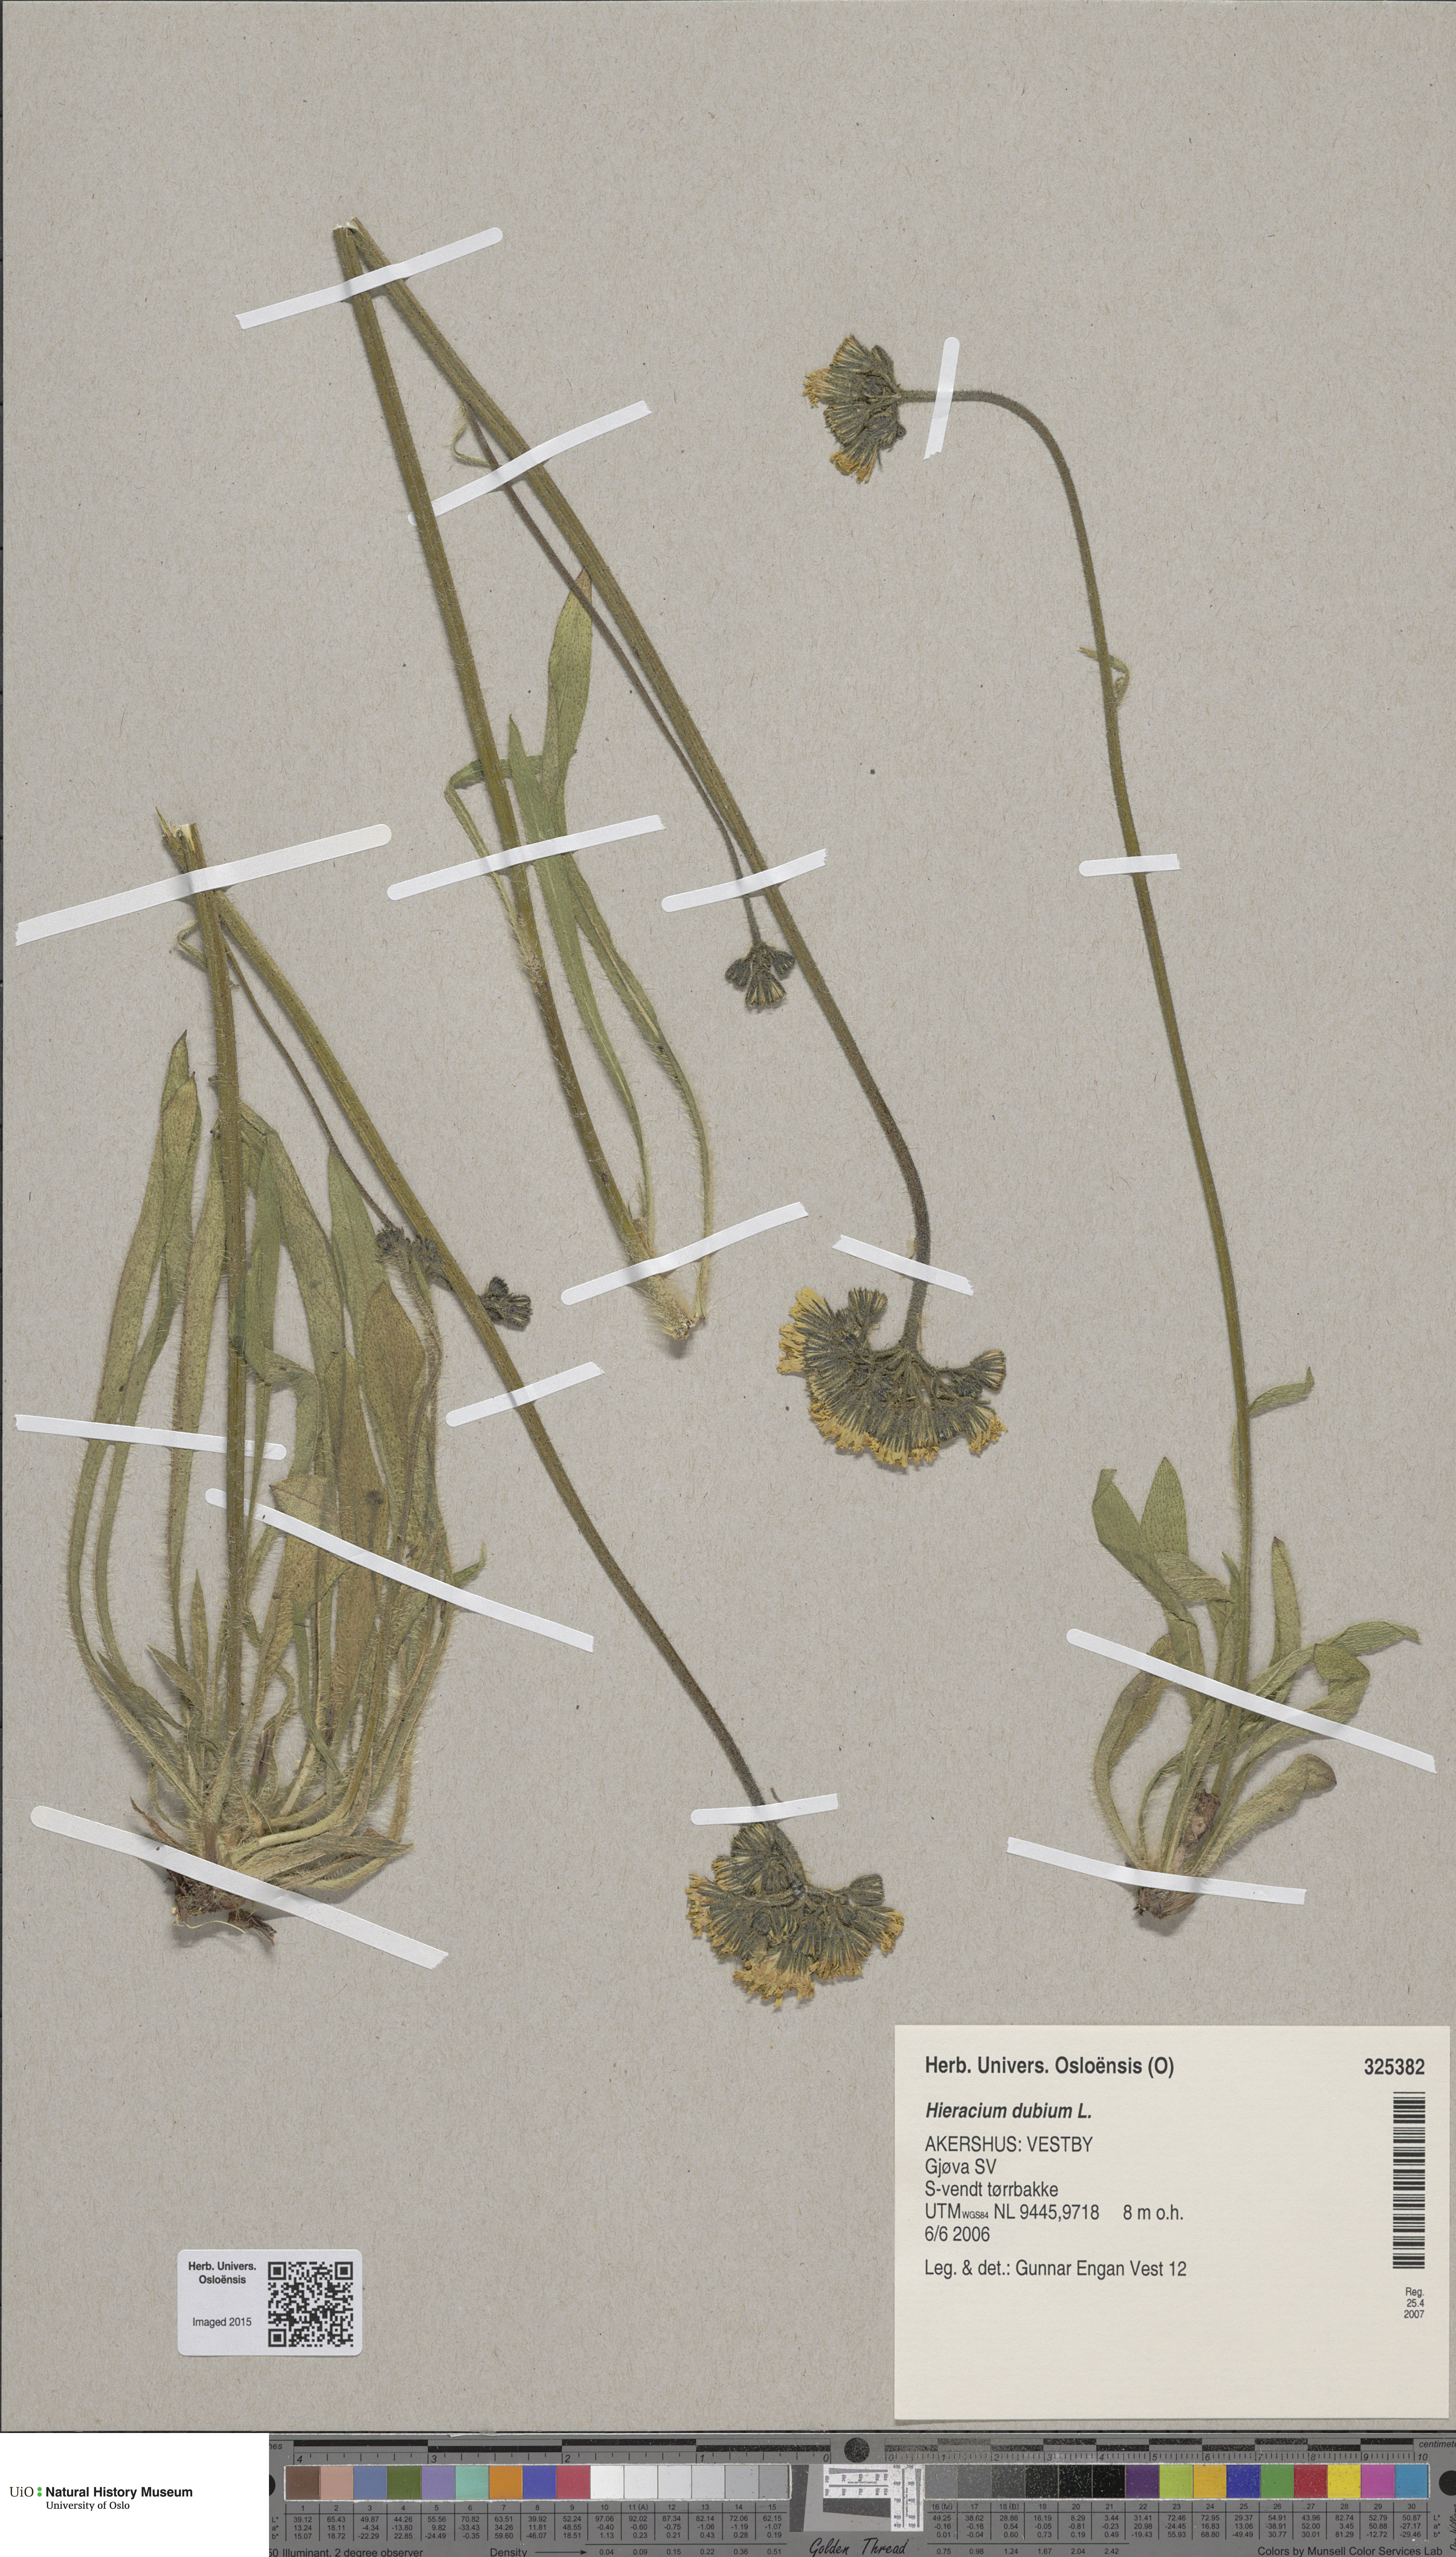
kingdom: Plantae
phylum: Tracheophyta
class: Magnoliopsida
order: Asterales
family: Asteraceae
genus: Pilosella
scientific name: Pilosella dubia
